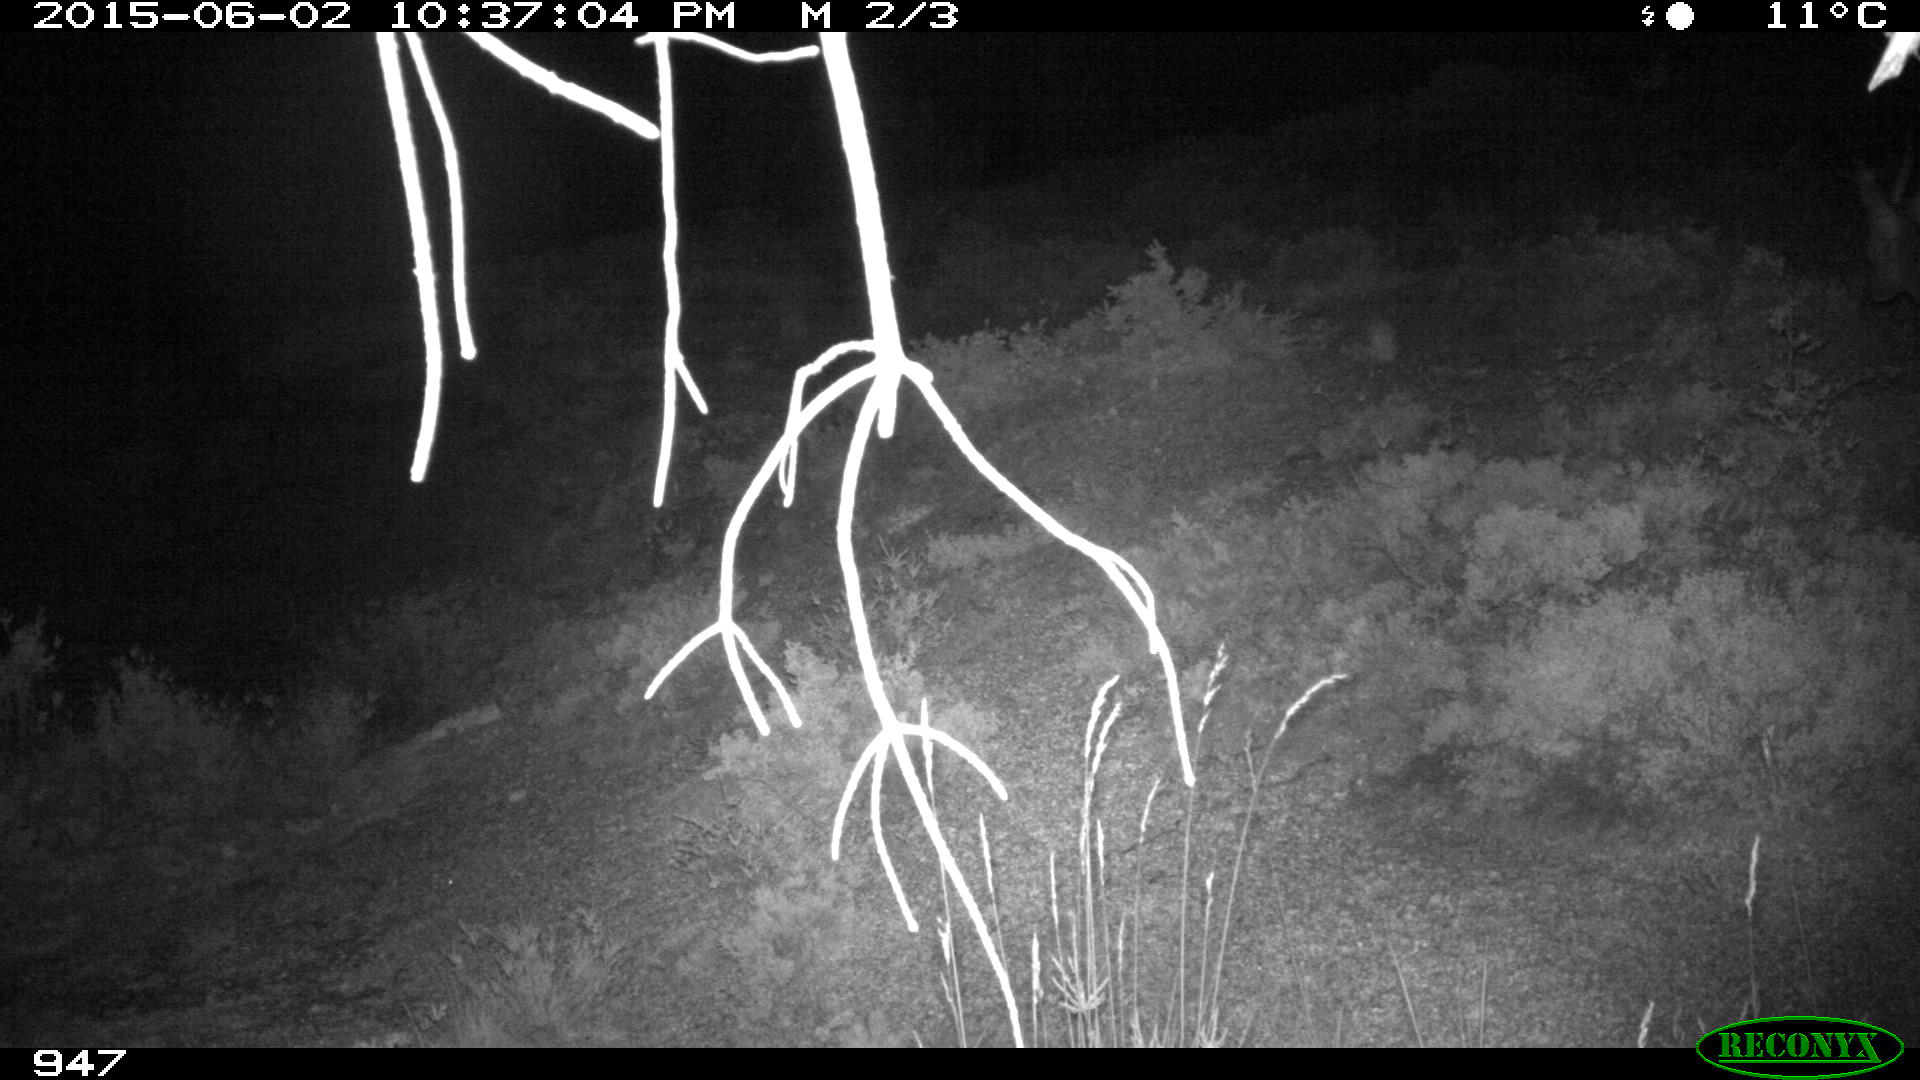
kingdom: Animalia
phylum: Chordata
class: Mammalia
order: Artiodactyla
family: Cervidae
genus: Capreolus
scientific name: Capreolus capreolus
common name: Western roe deer
